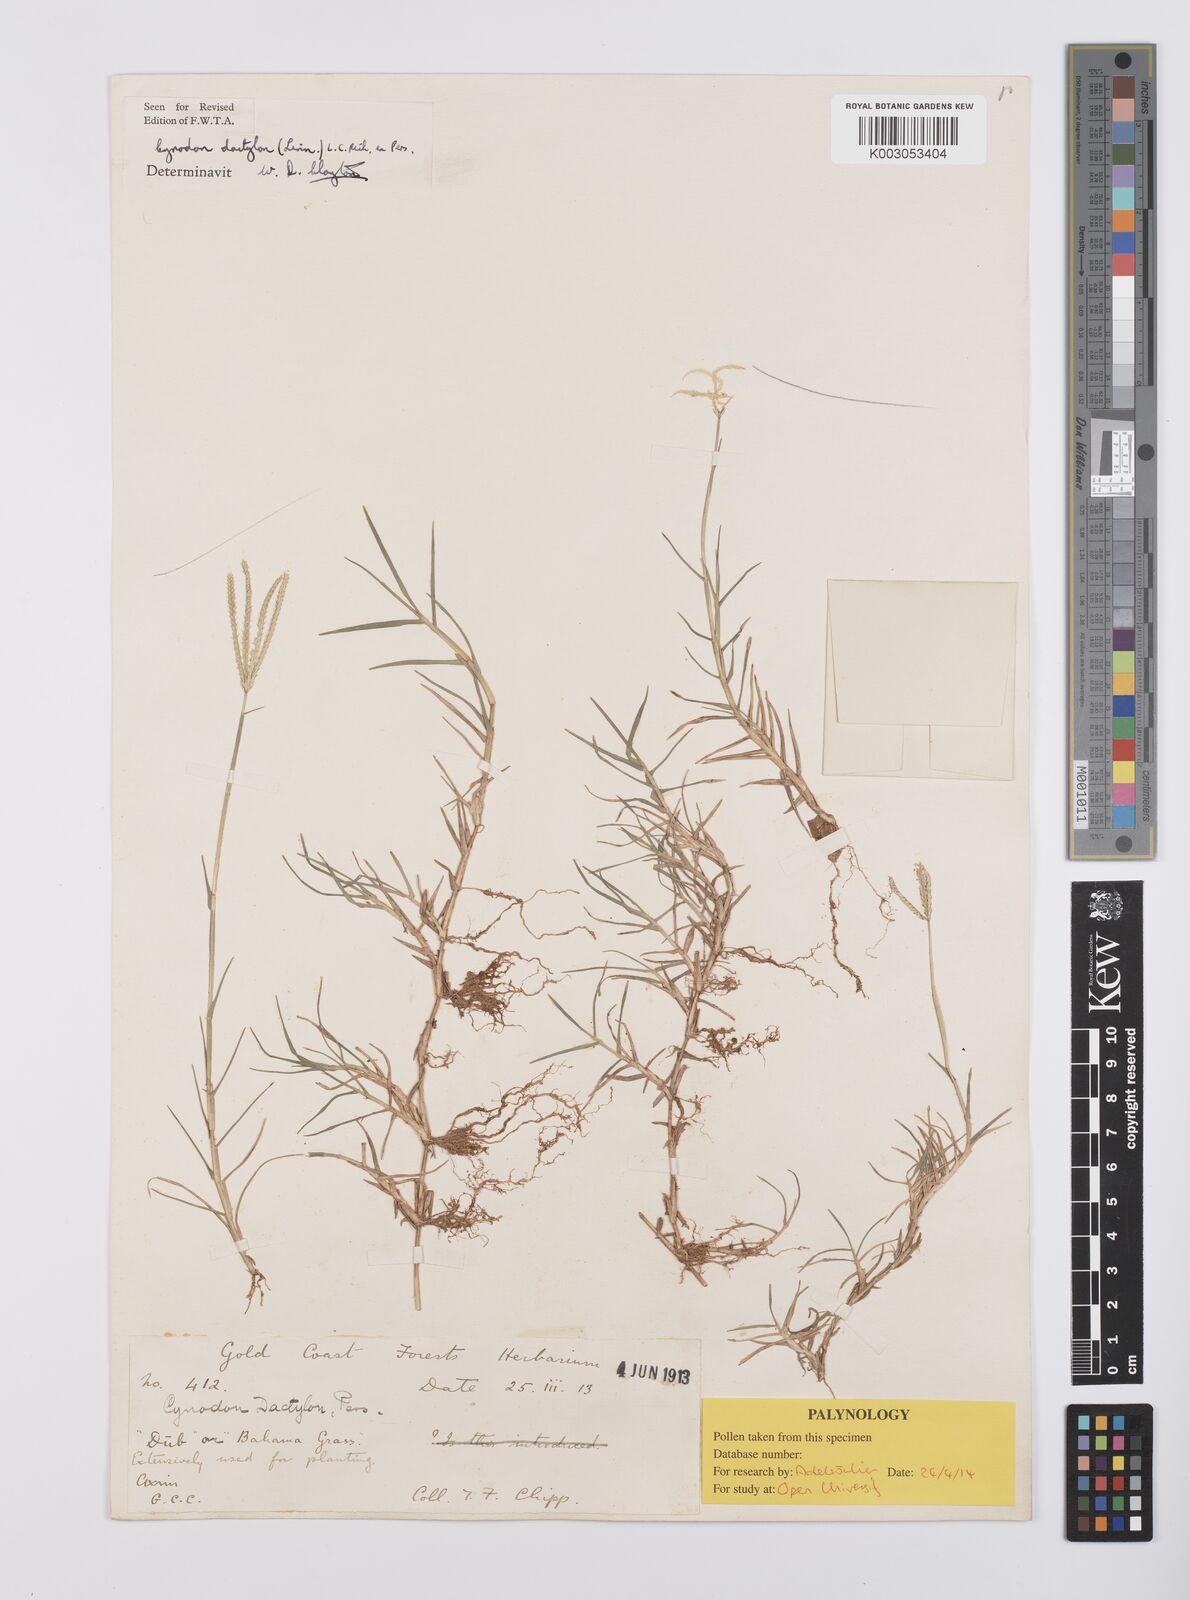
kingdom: Plantae
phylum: Tracheophyta
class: Liliopsida
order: Poales
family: Poaceae
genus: Cynodon
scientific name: Cynodon dactylon
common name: Bermuda grass
